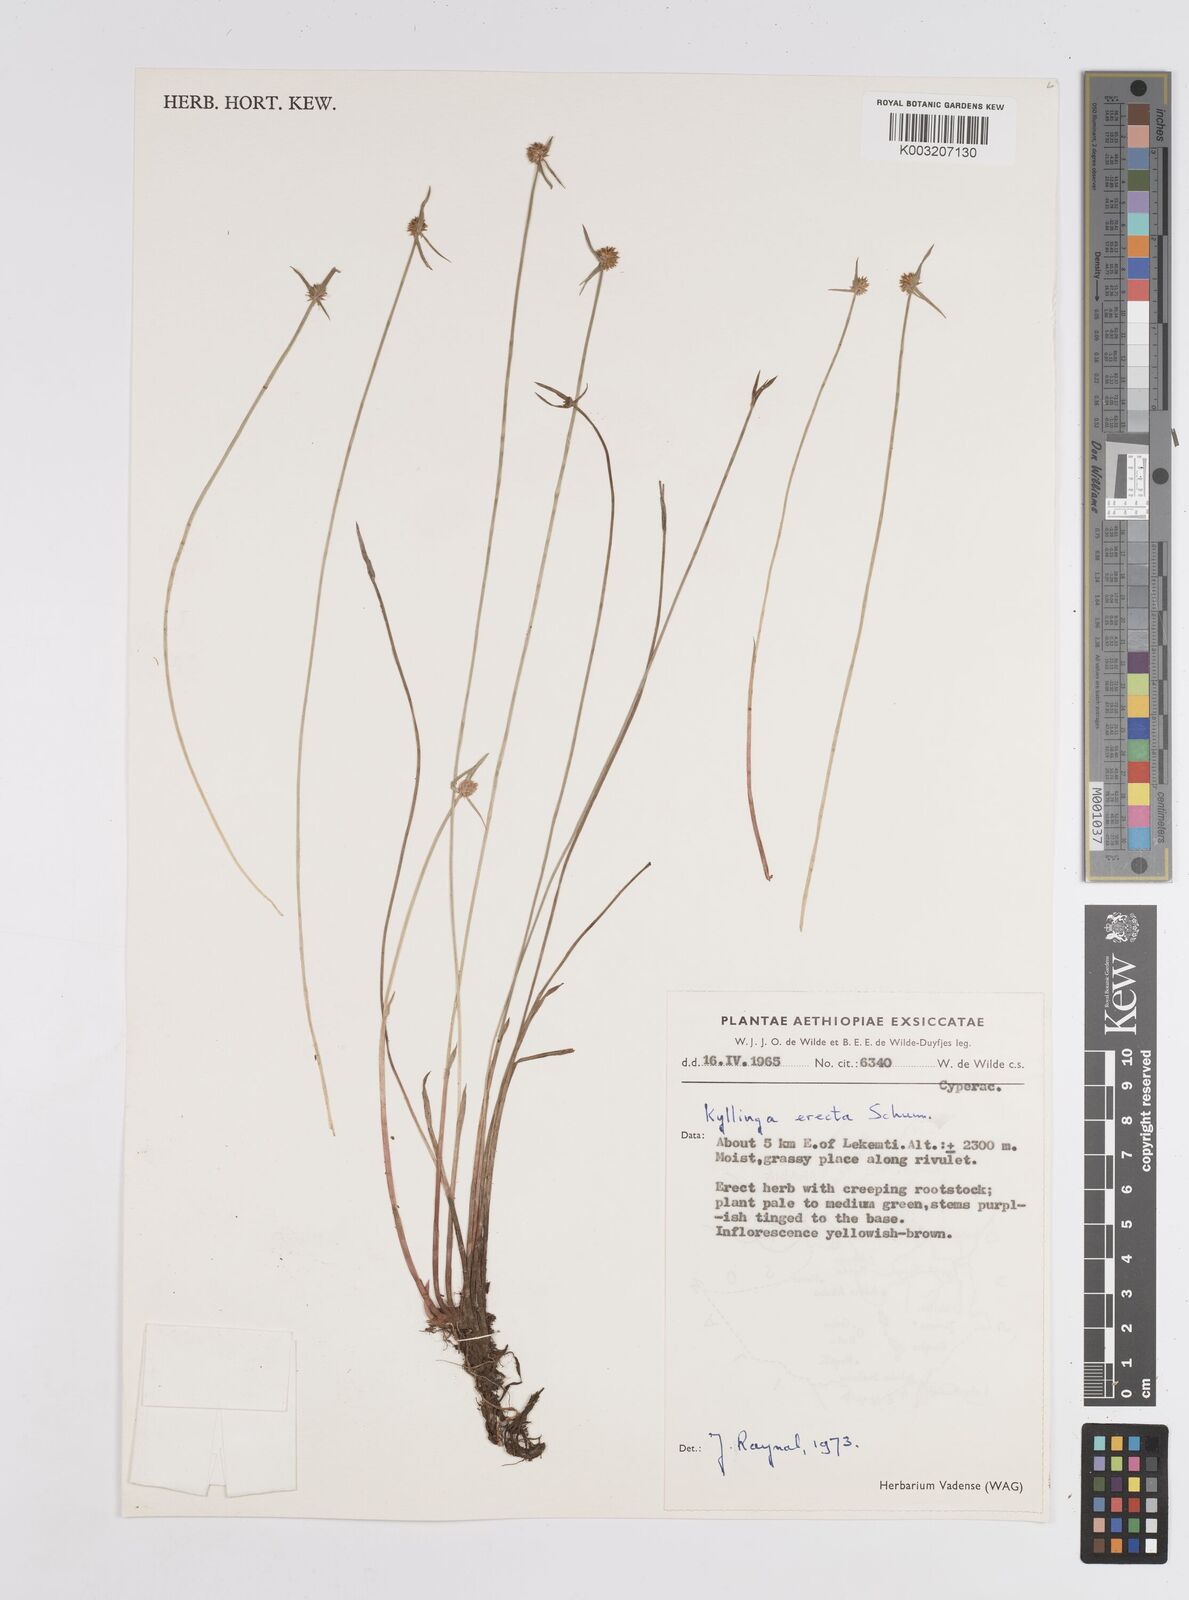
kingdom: Plantae
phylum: Tracheophyta
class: Liliopsida
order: Poales
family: Cyperaceae
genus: Cyperus
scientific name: Cyperus
